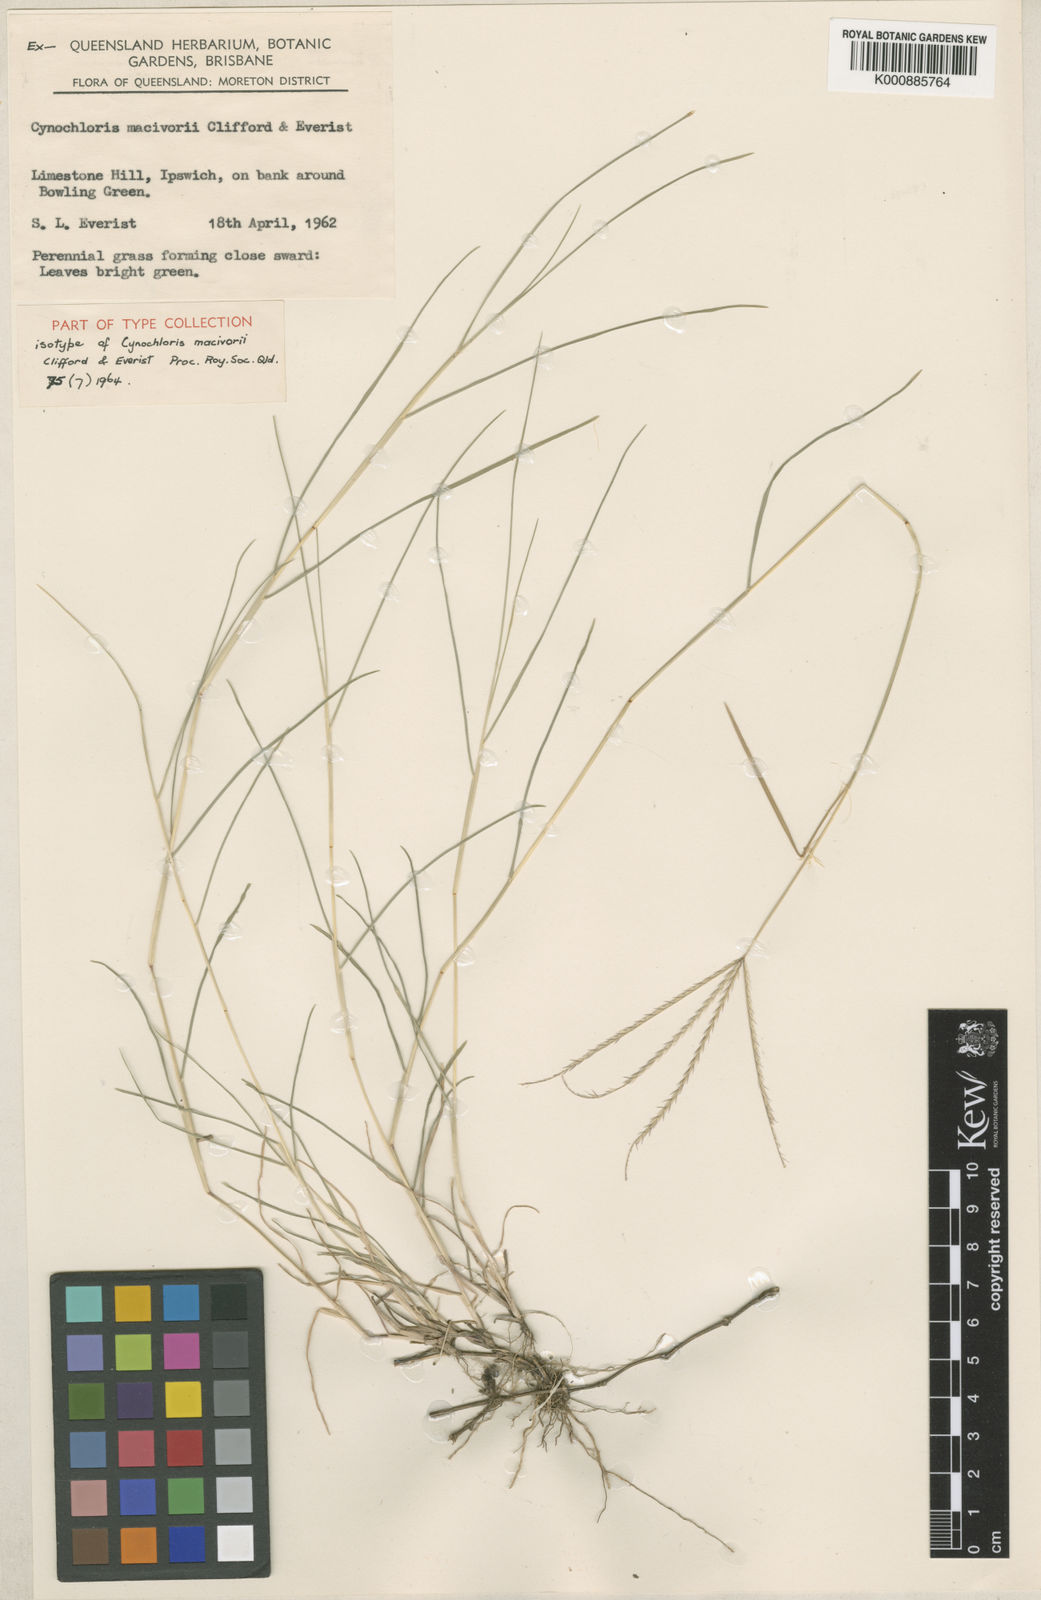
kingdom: Plantae
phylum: Tracheophyta
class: Liliopsida
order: Poales
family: Poaceae
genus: Cynochloris
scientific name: Cynochloris macivorii
